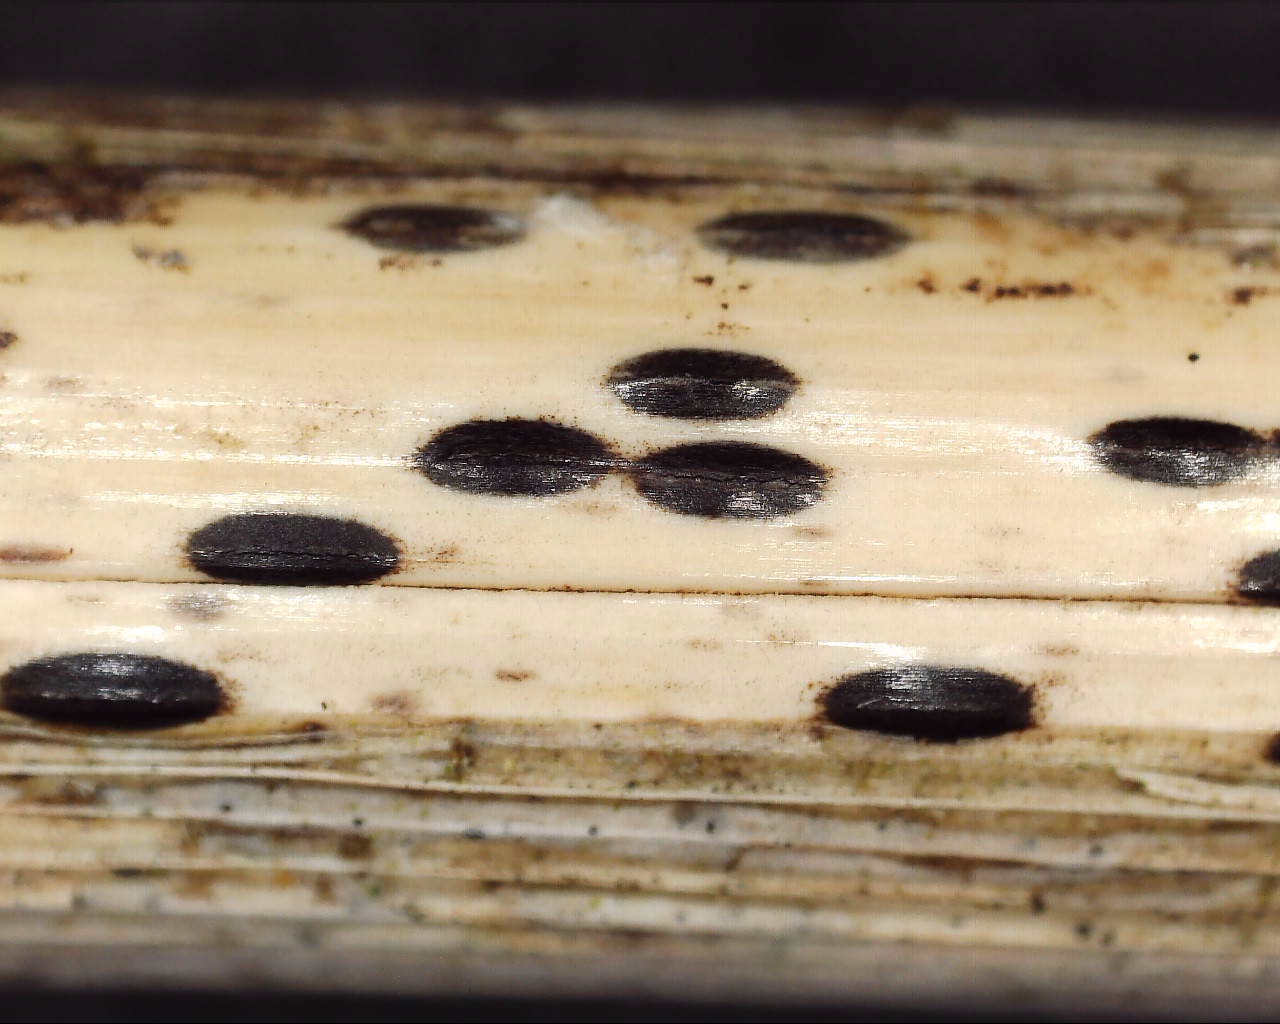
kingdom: Fungi
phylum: Ascomycota
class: Leotiomycetes
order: Rhytismatales
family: Rhytismataceae
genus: Lophodermium
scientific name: Lophodermium arundinaceum
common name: almindelig fureplet
